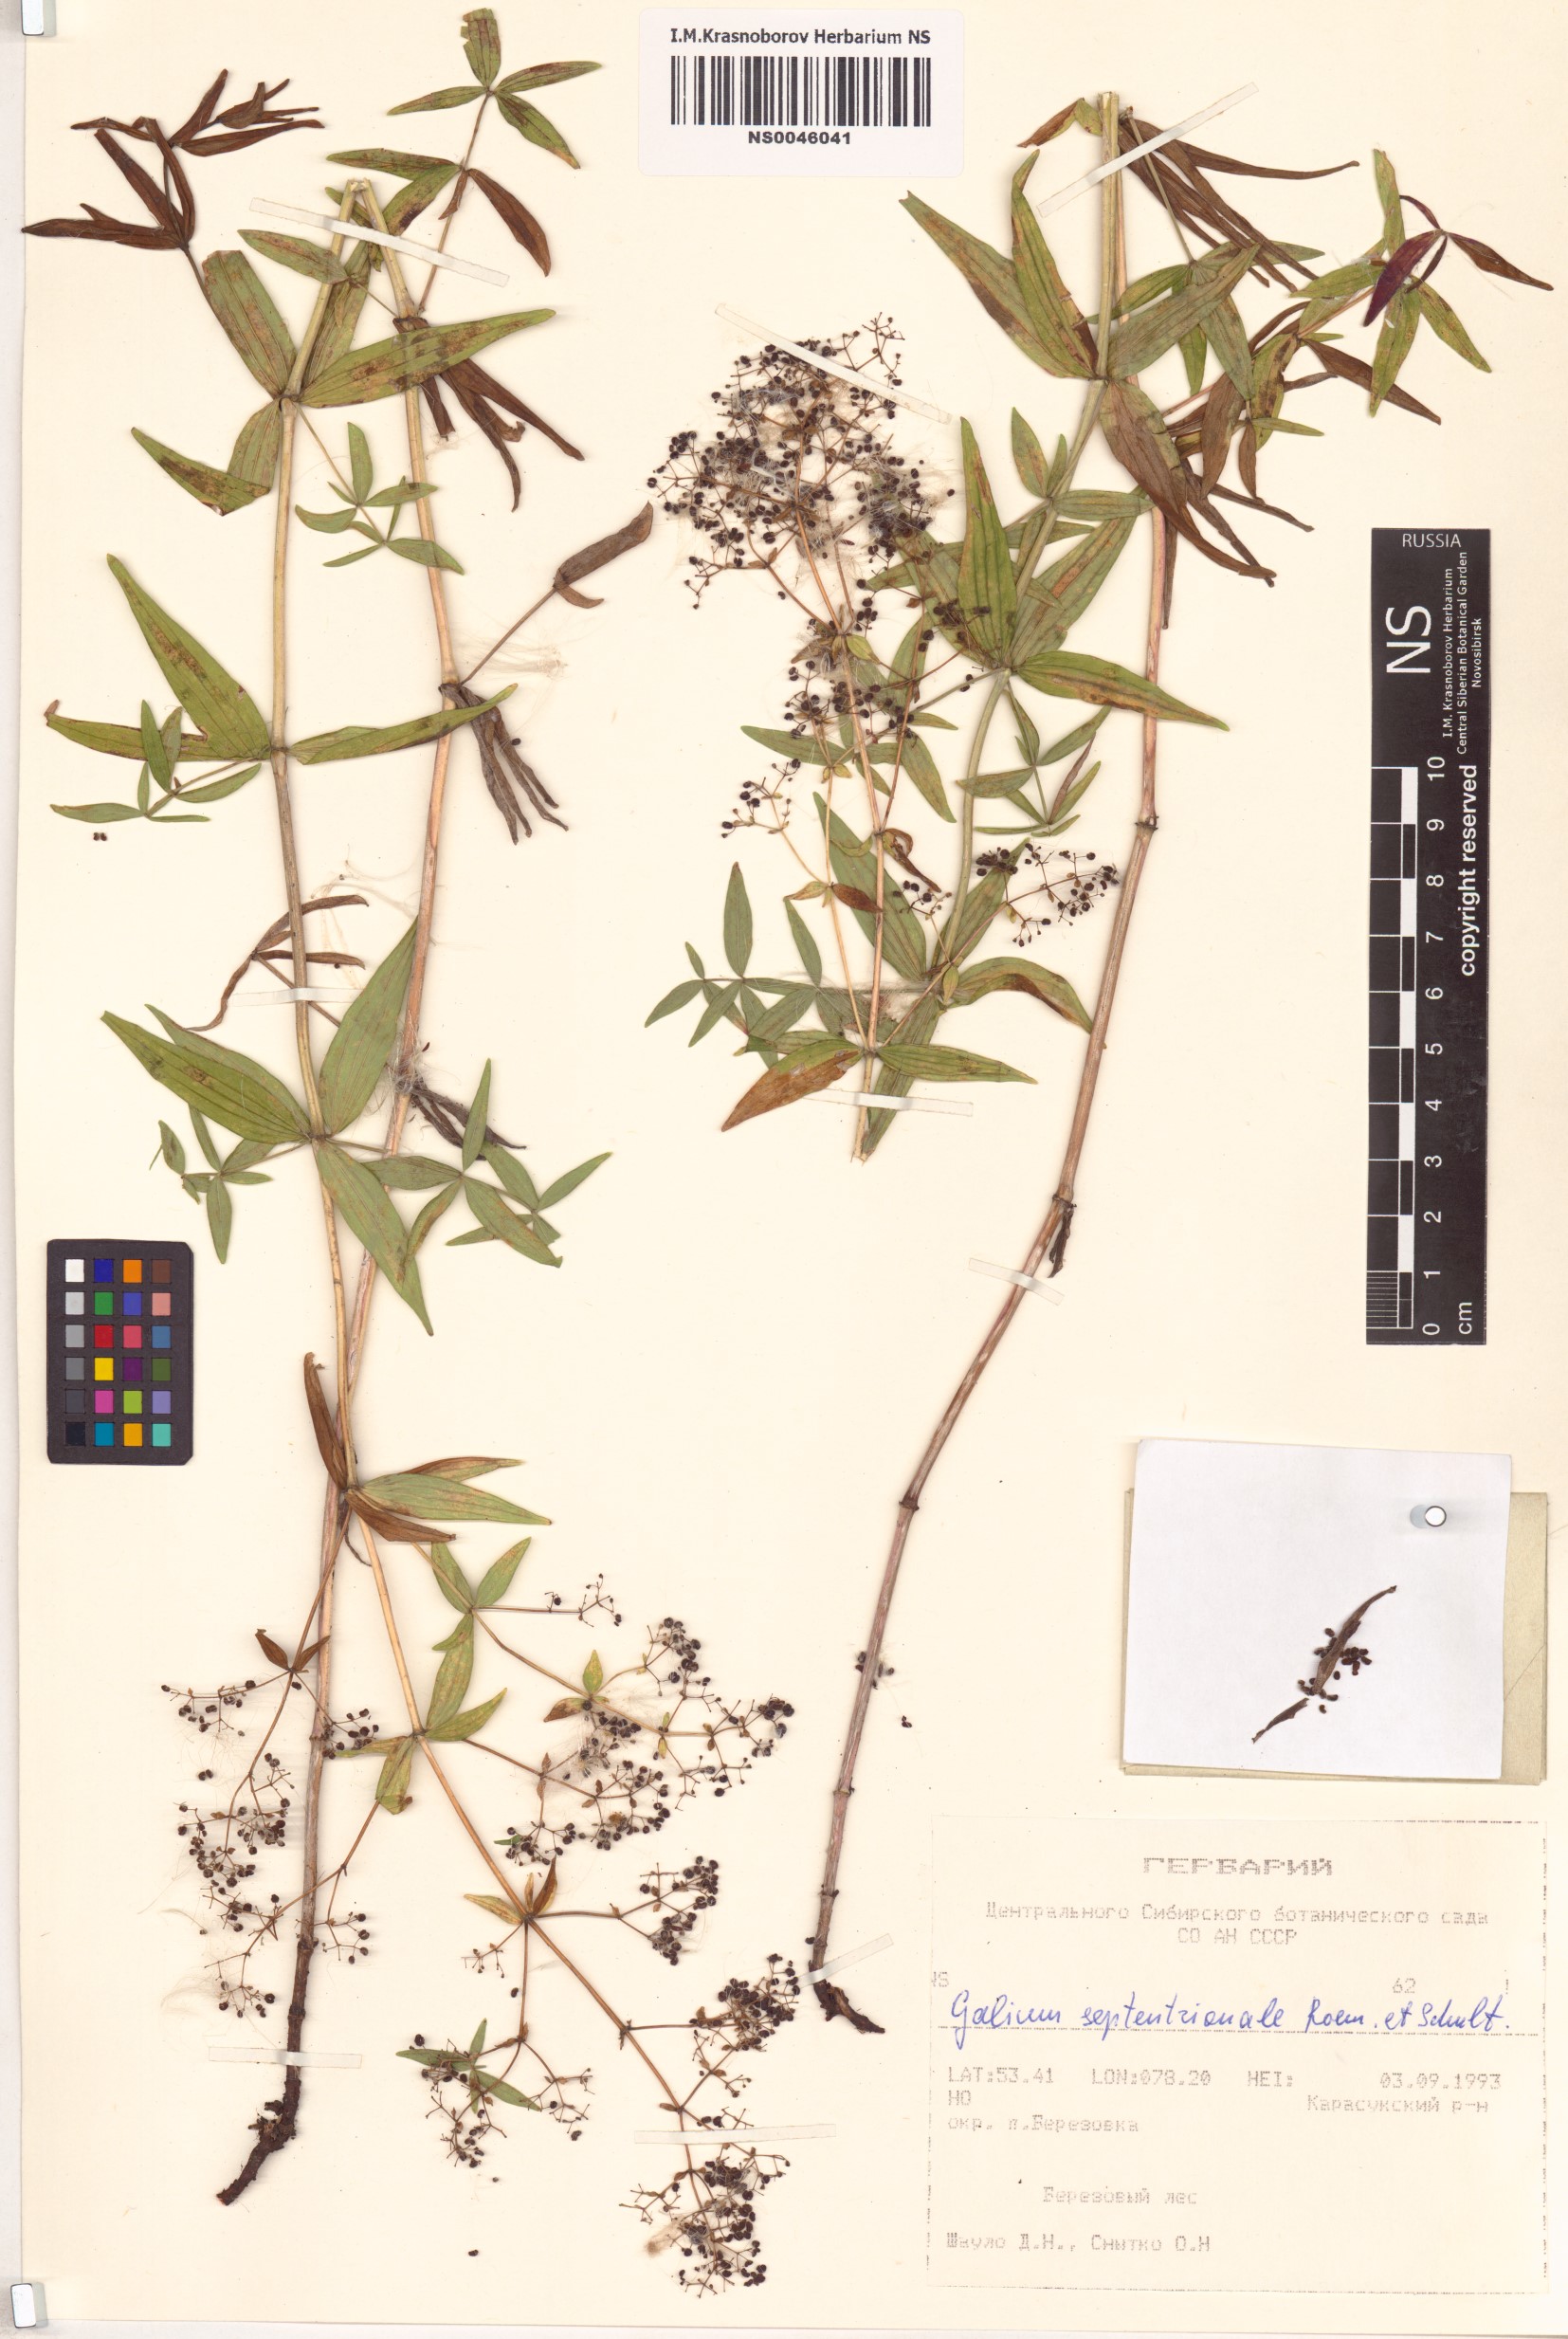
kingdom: Plantae
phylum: Tracheophyta
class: Magnoliopsida
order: Gentianales
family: Rubiaceae
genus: Galium
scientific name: Galium boreale
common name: Northern bedstraw
